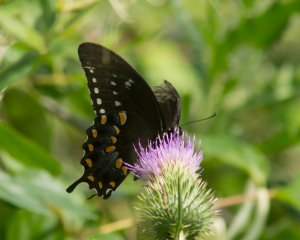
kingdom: Animalia
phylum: Arthropoda
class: Insecta
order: Lepidoptera
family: Papilionidae
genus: Pterourus
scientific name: Pterourus troilus
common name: Spicebush Swallowtail
